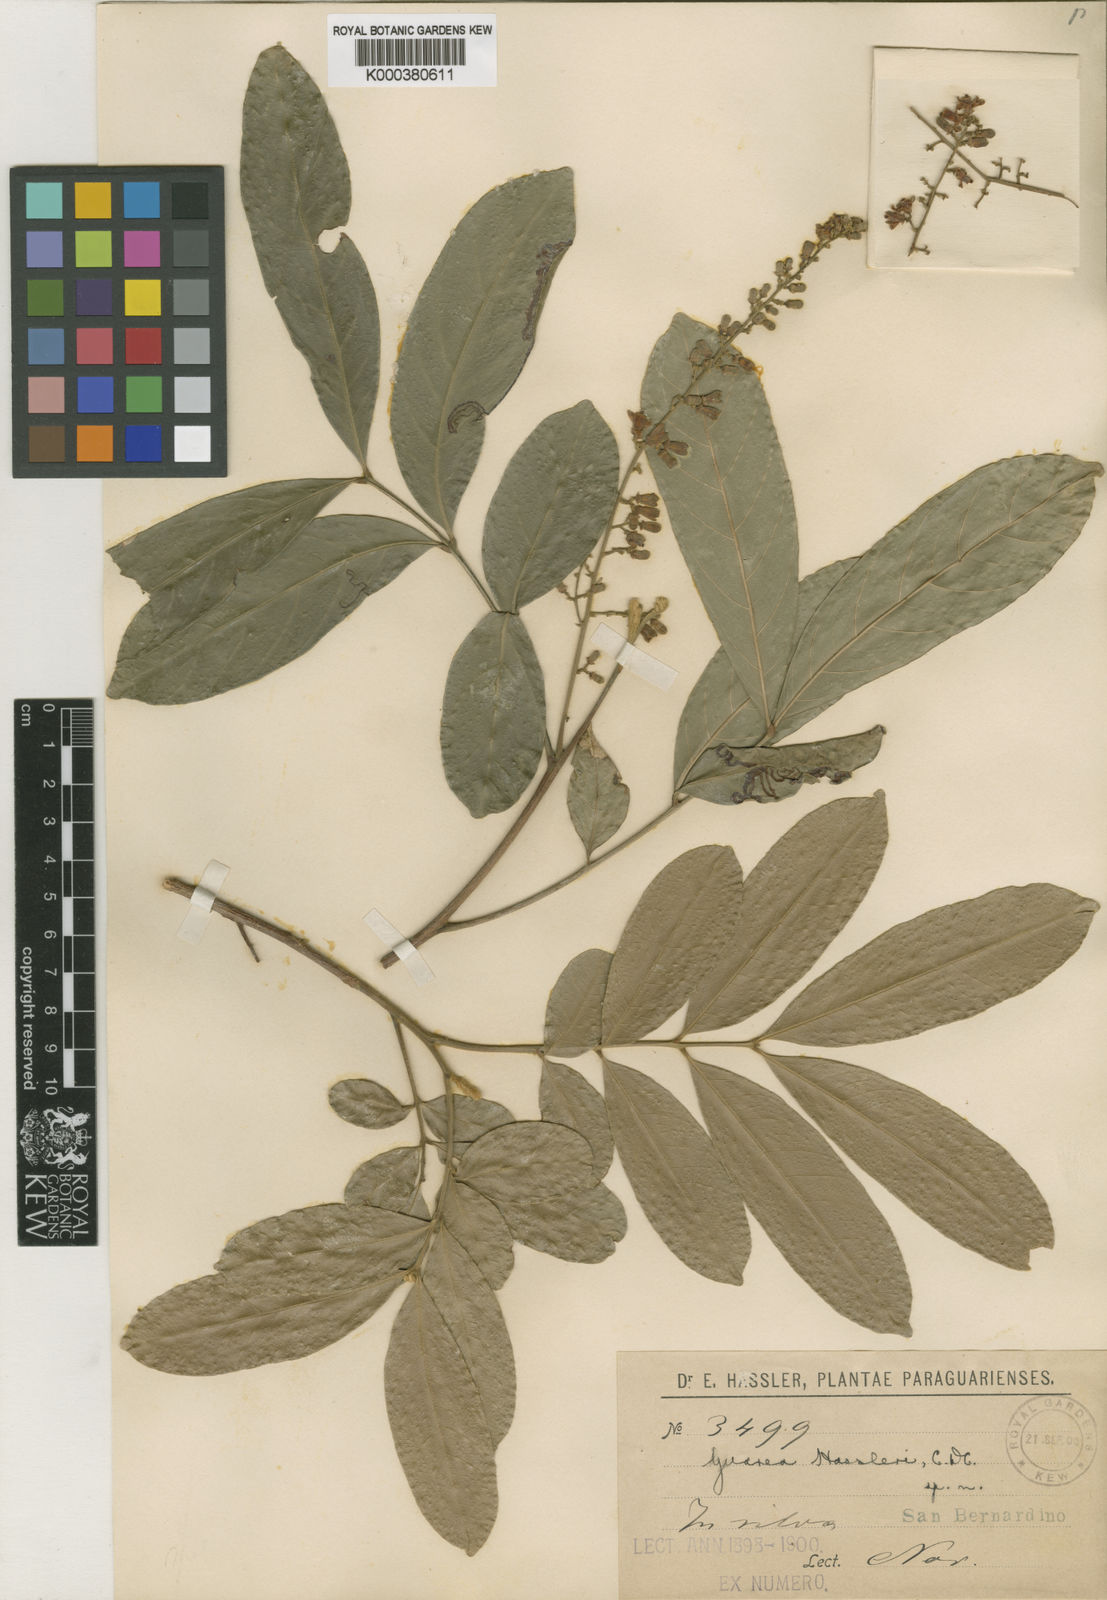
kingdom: Plantae
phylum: Tracheophyta
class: Magnoliopsida
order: Sapindales
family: Meliaceae
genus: Guarea
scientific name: Guarea macrophylla
